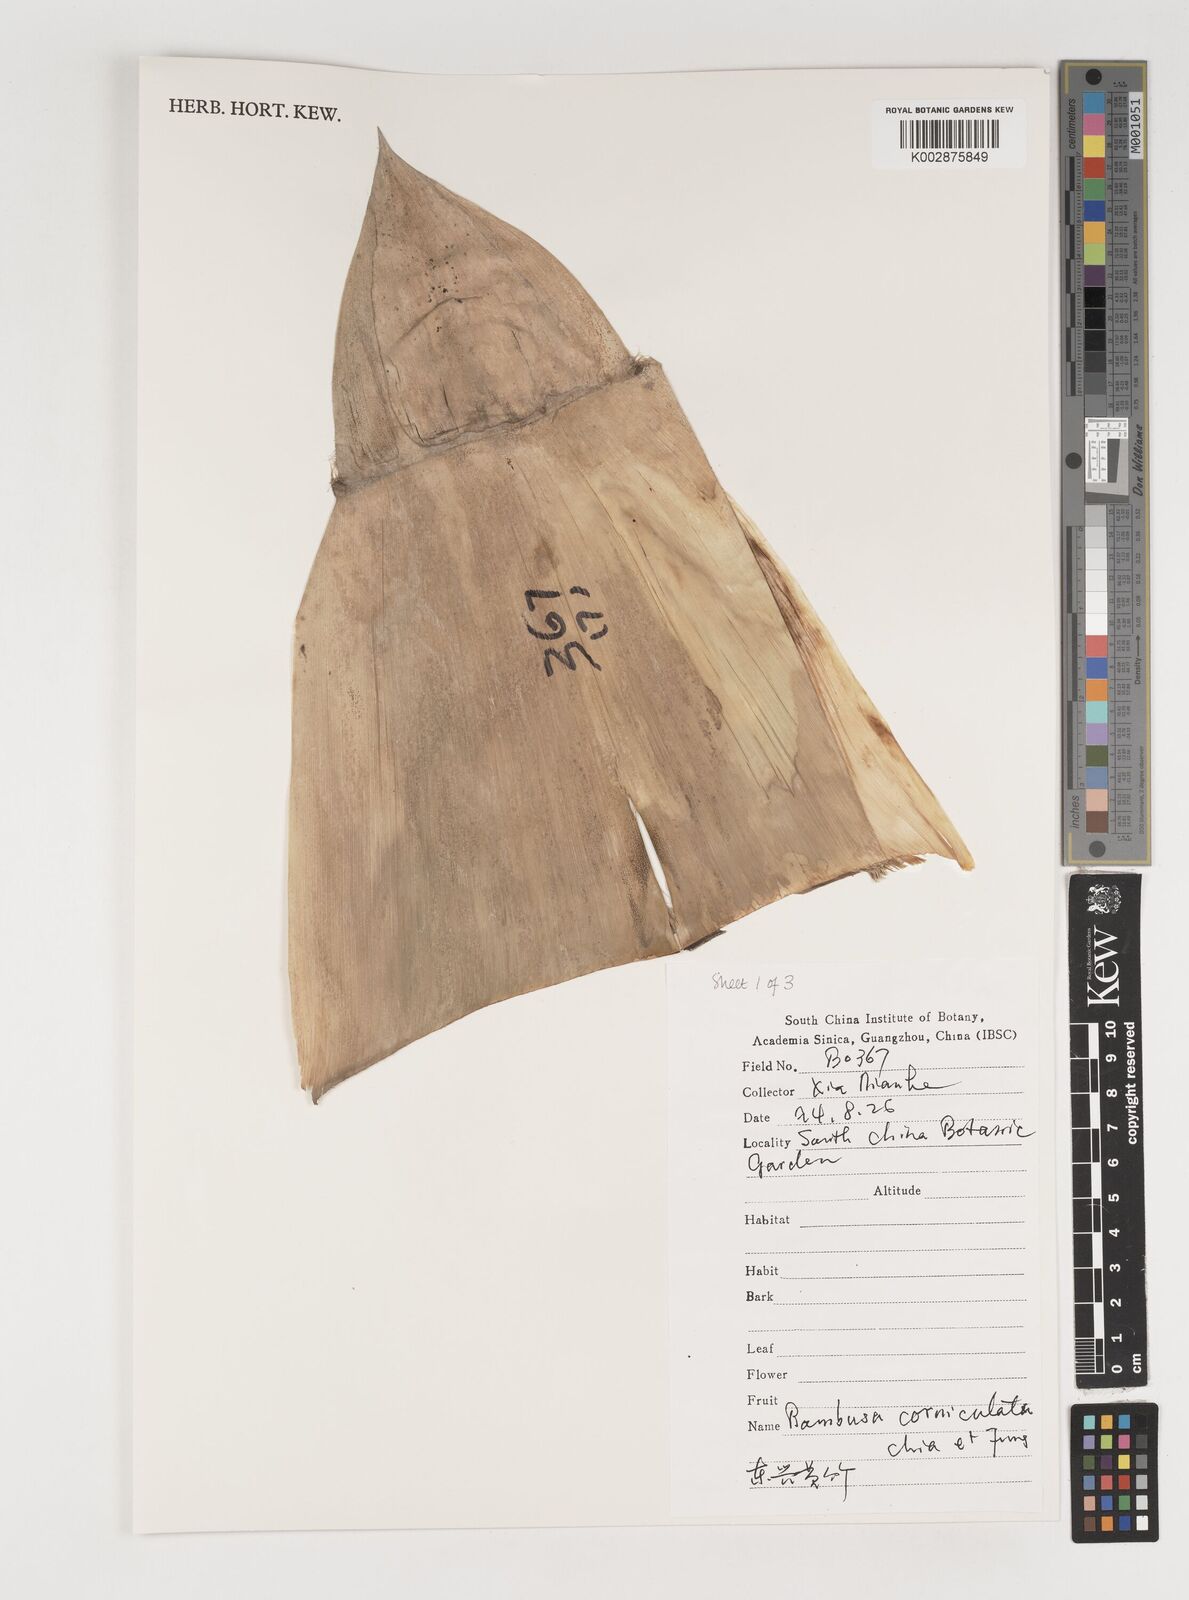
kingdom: Plantae
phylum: Tracheophyta
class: Liliopsida
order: Poales
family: Poaceae
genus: Bambusa
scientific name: Bambusa corniculata
